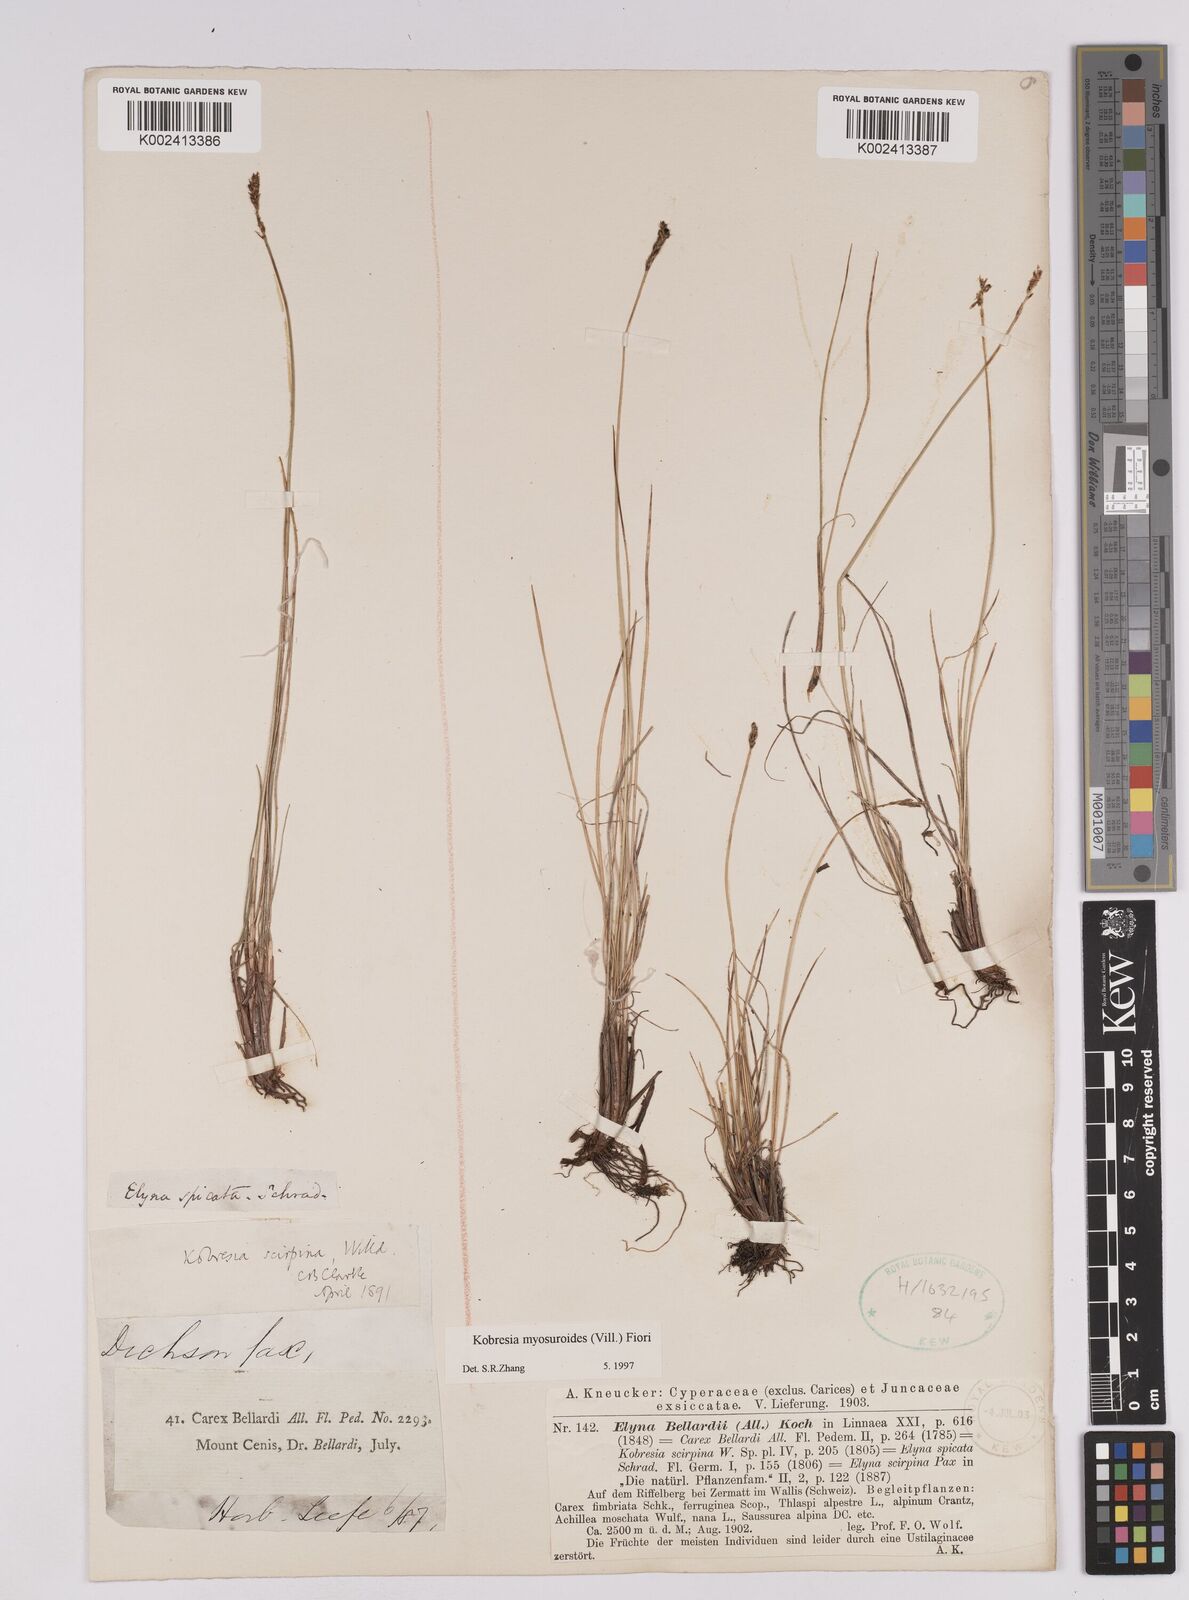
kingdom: Plantae
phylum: Tracheophyta
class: Liliopsida
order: Poales
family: Cyperaceae
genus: Carex
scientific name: Carex myosuroides
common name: Bellard's bog sedge
